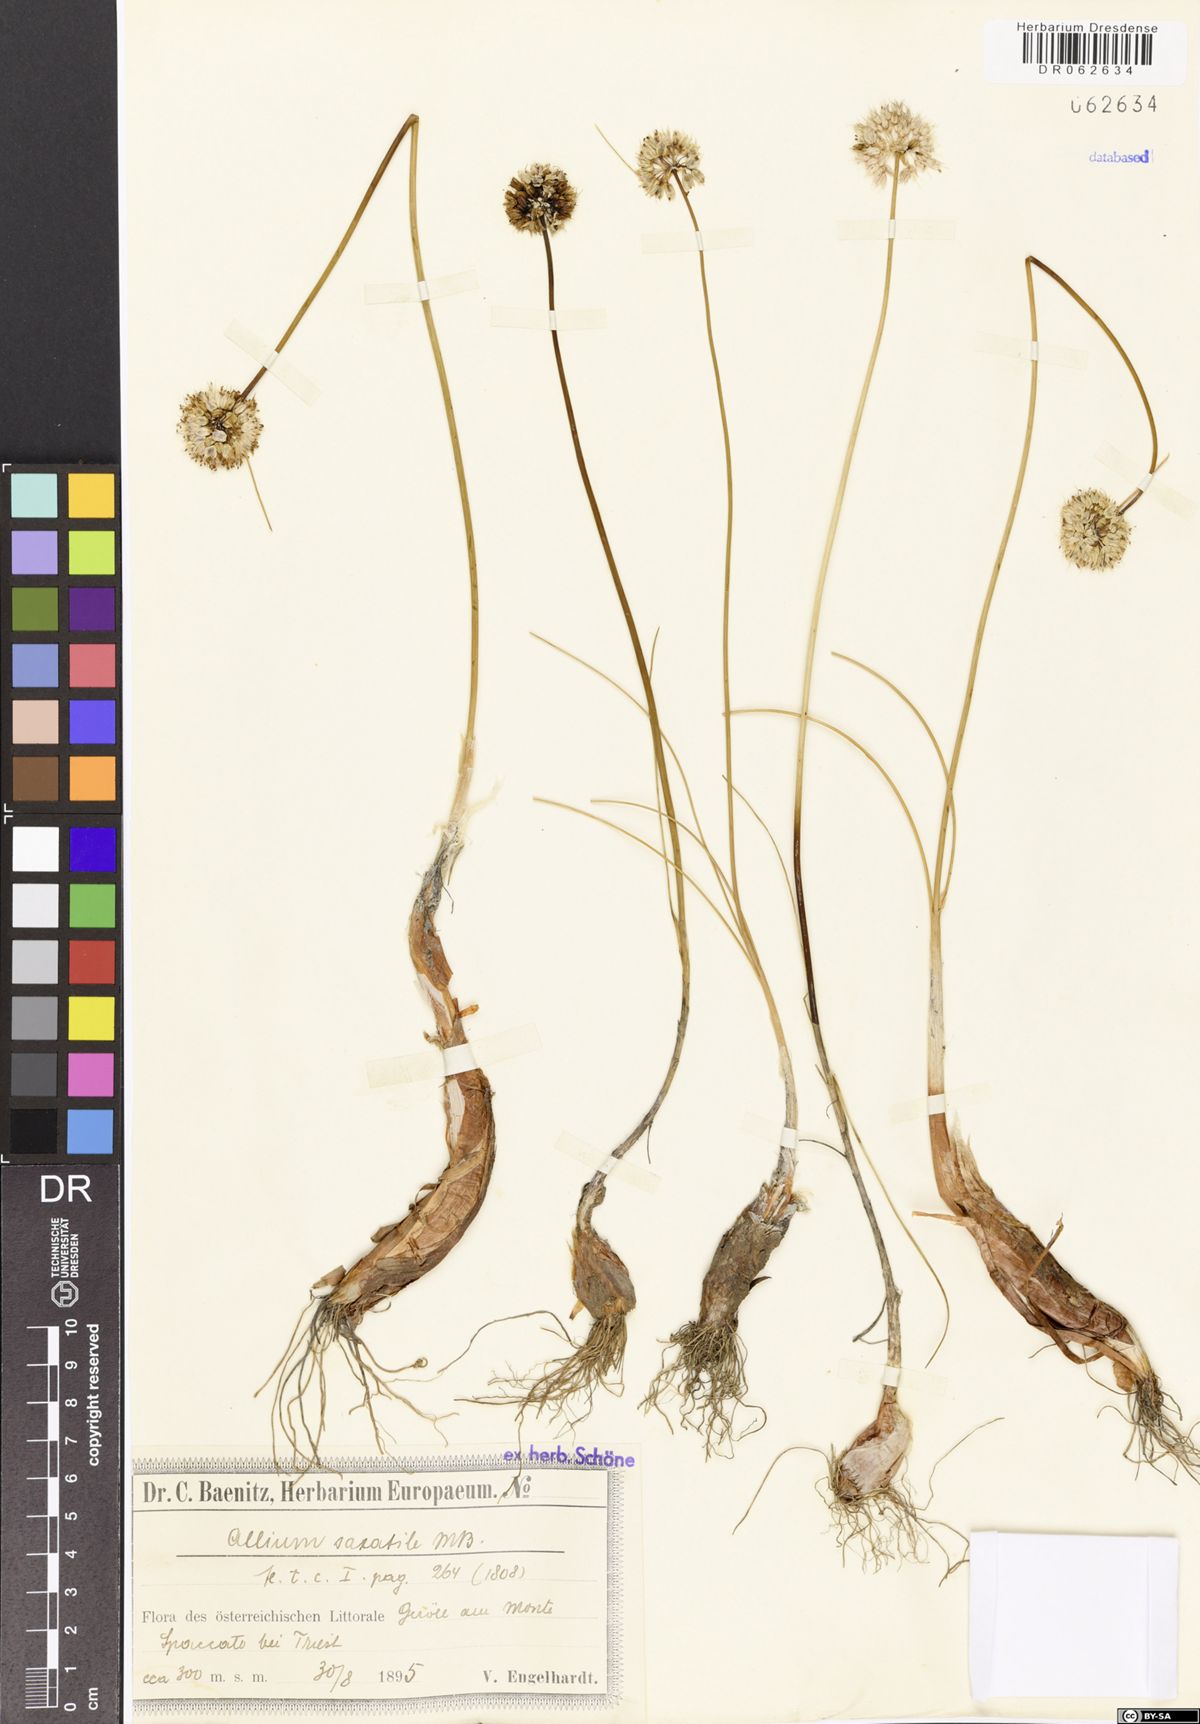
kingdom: Plantae
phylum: Tracheophyta
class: Liliopsida
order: Asparagales
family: Amaryllidaceae
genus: Allium
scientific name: Allium saxatile
